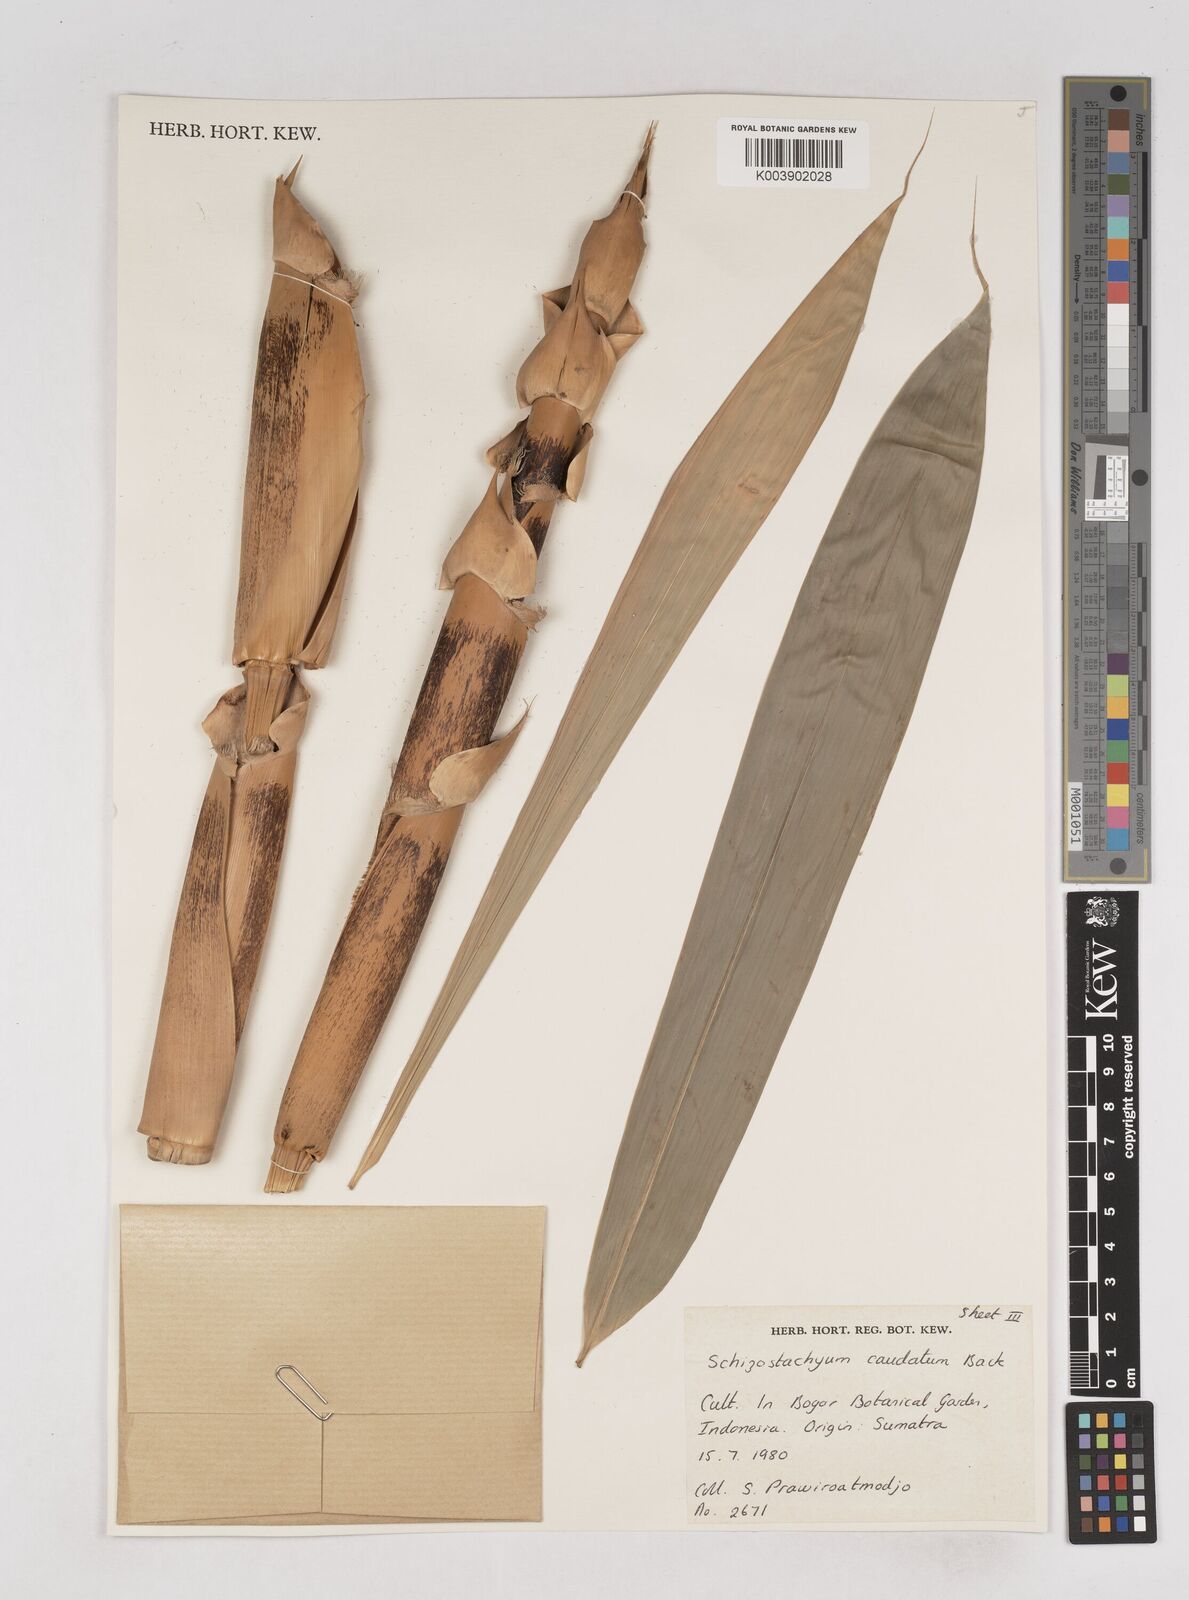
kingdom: Plantae
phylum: Tracheophyta
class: Liliopsida
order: Poales
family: Poaceae
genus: Schizostachyum
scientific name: Schizostachyum caudatum
